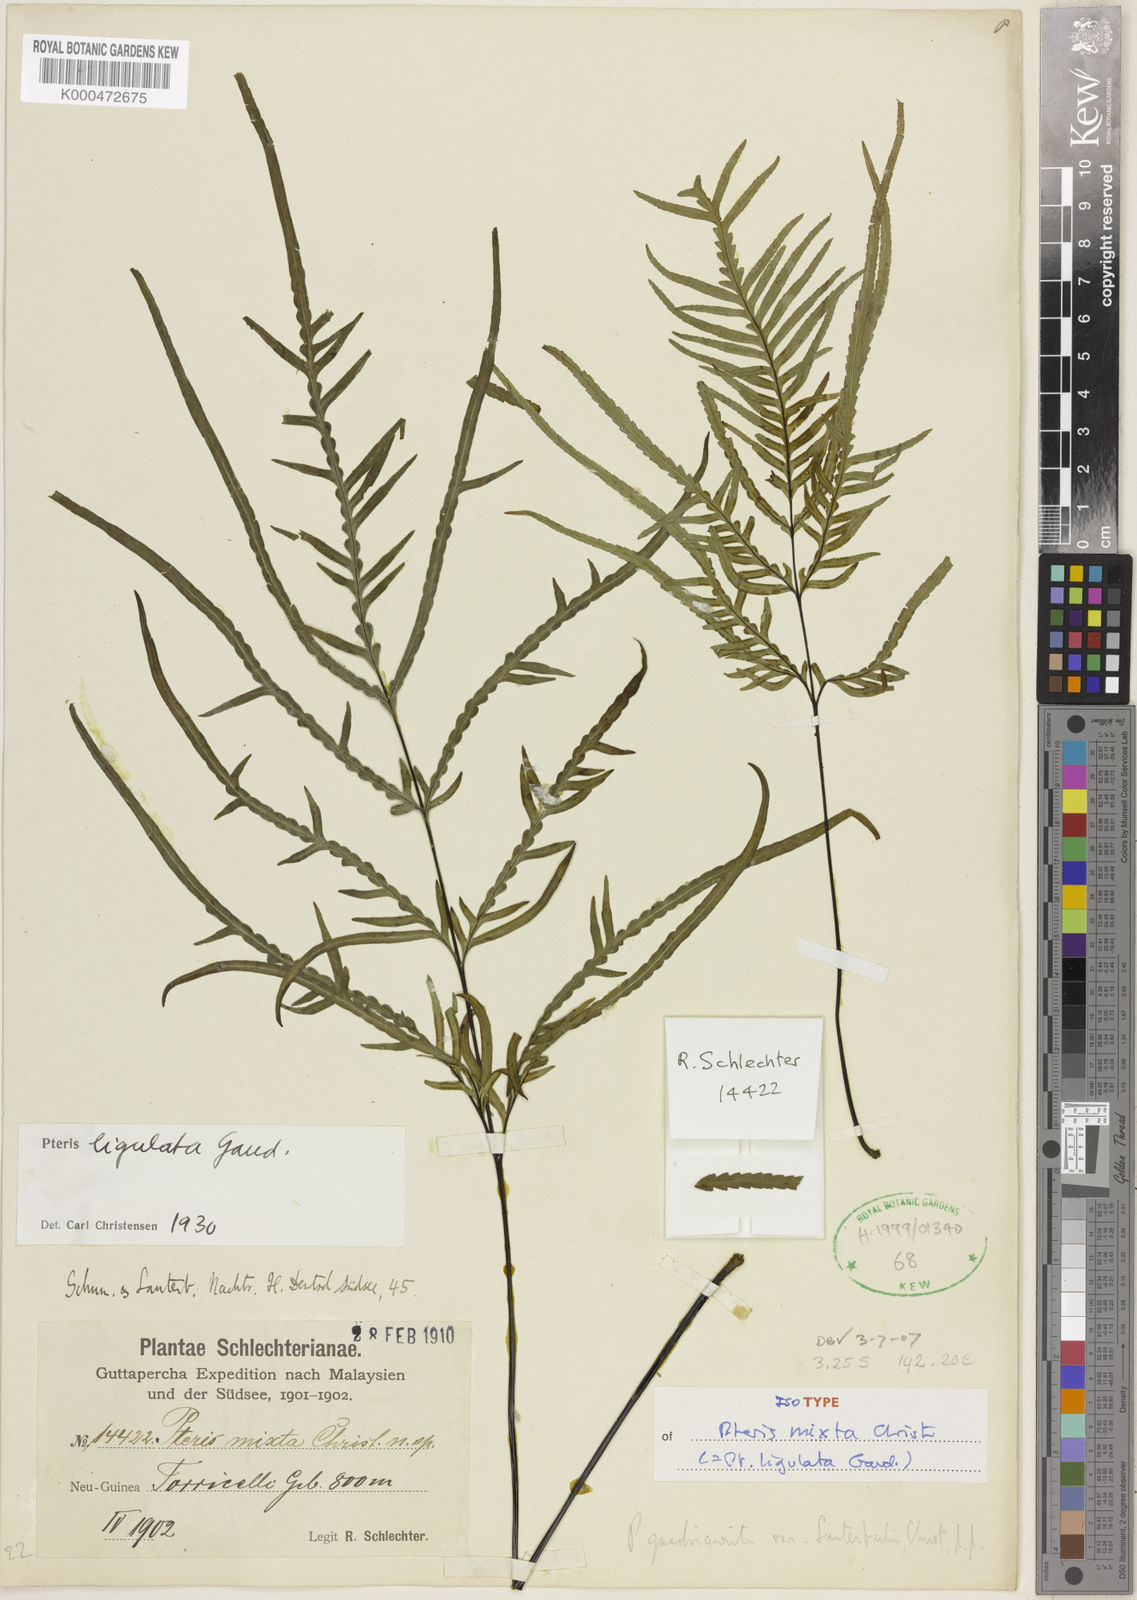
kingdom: Plantae
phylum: Tracheophyta
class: Polypodiopsida
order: Polypodiales
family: Pteridaceae
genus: Pteris
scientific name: Pteris ligulata
